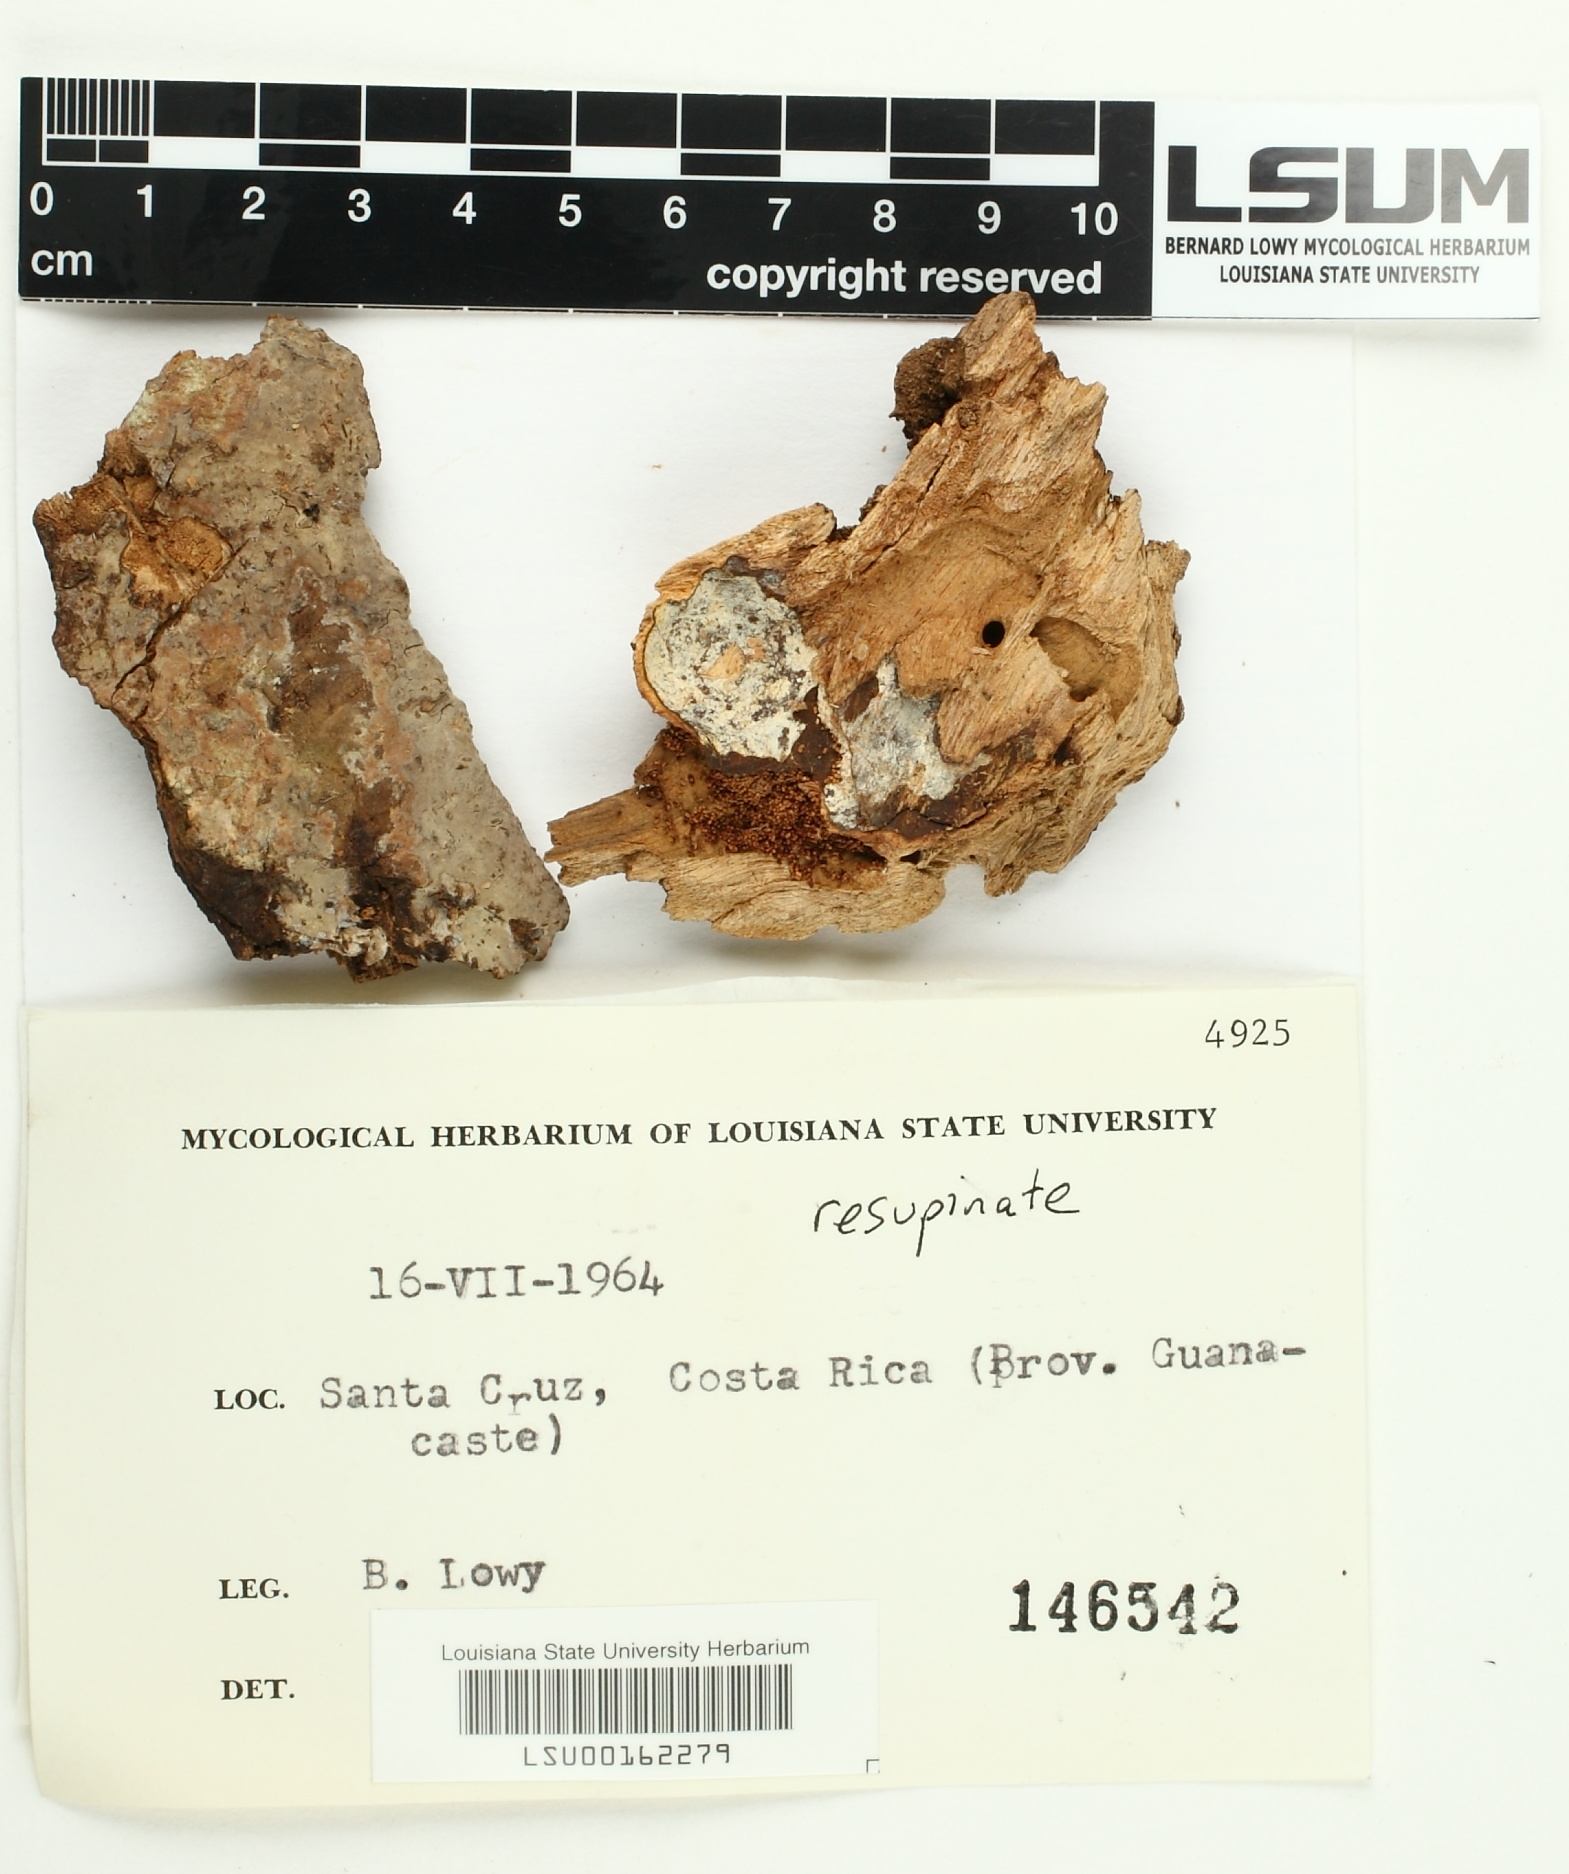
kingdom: Fungi
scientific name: Fungi
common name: Fungi
